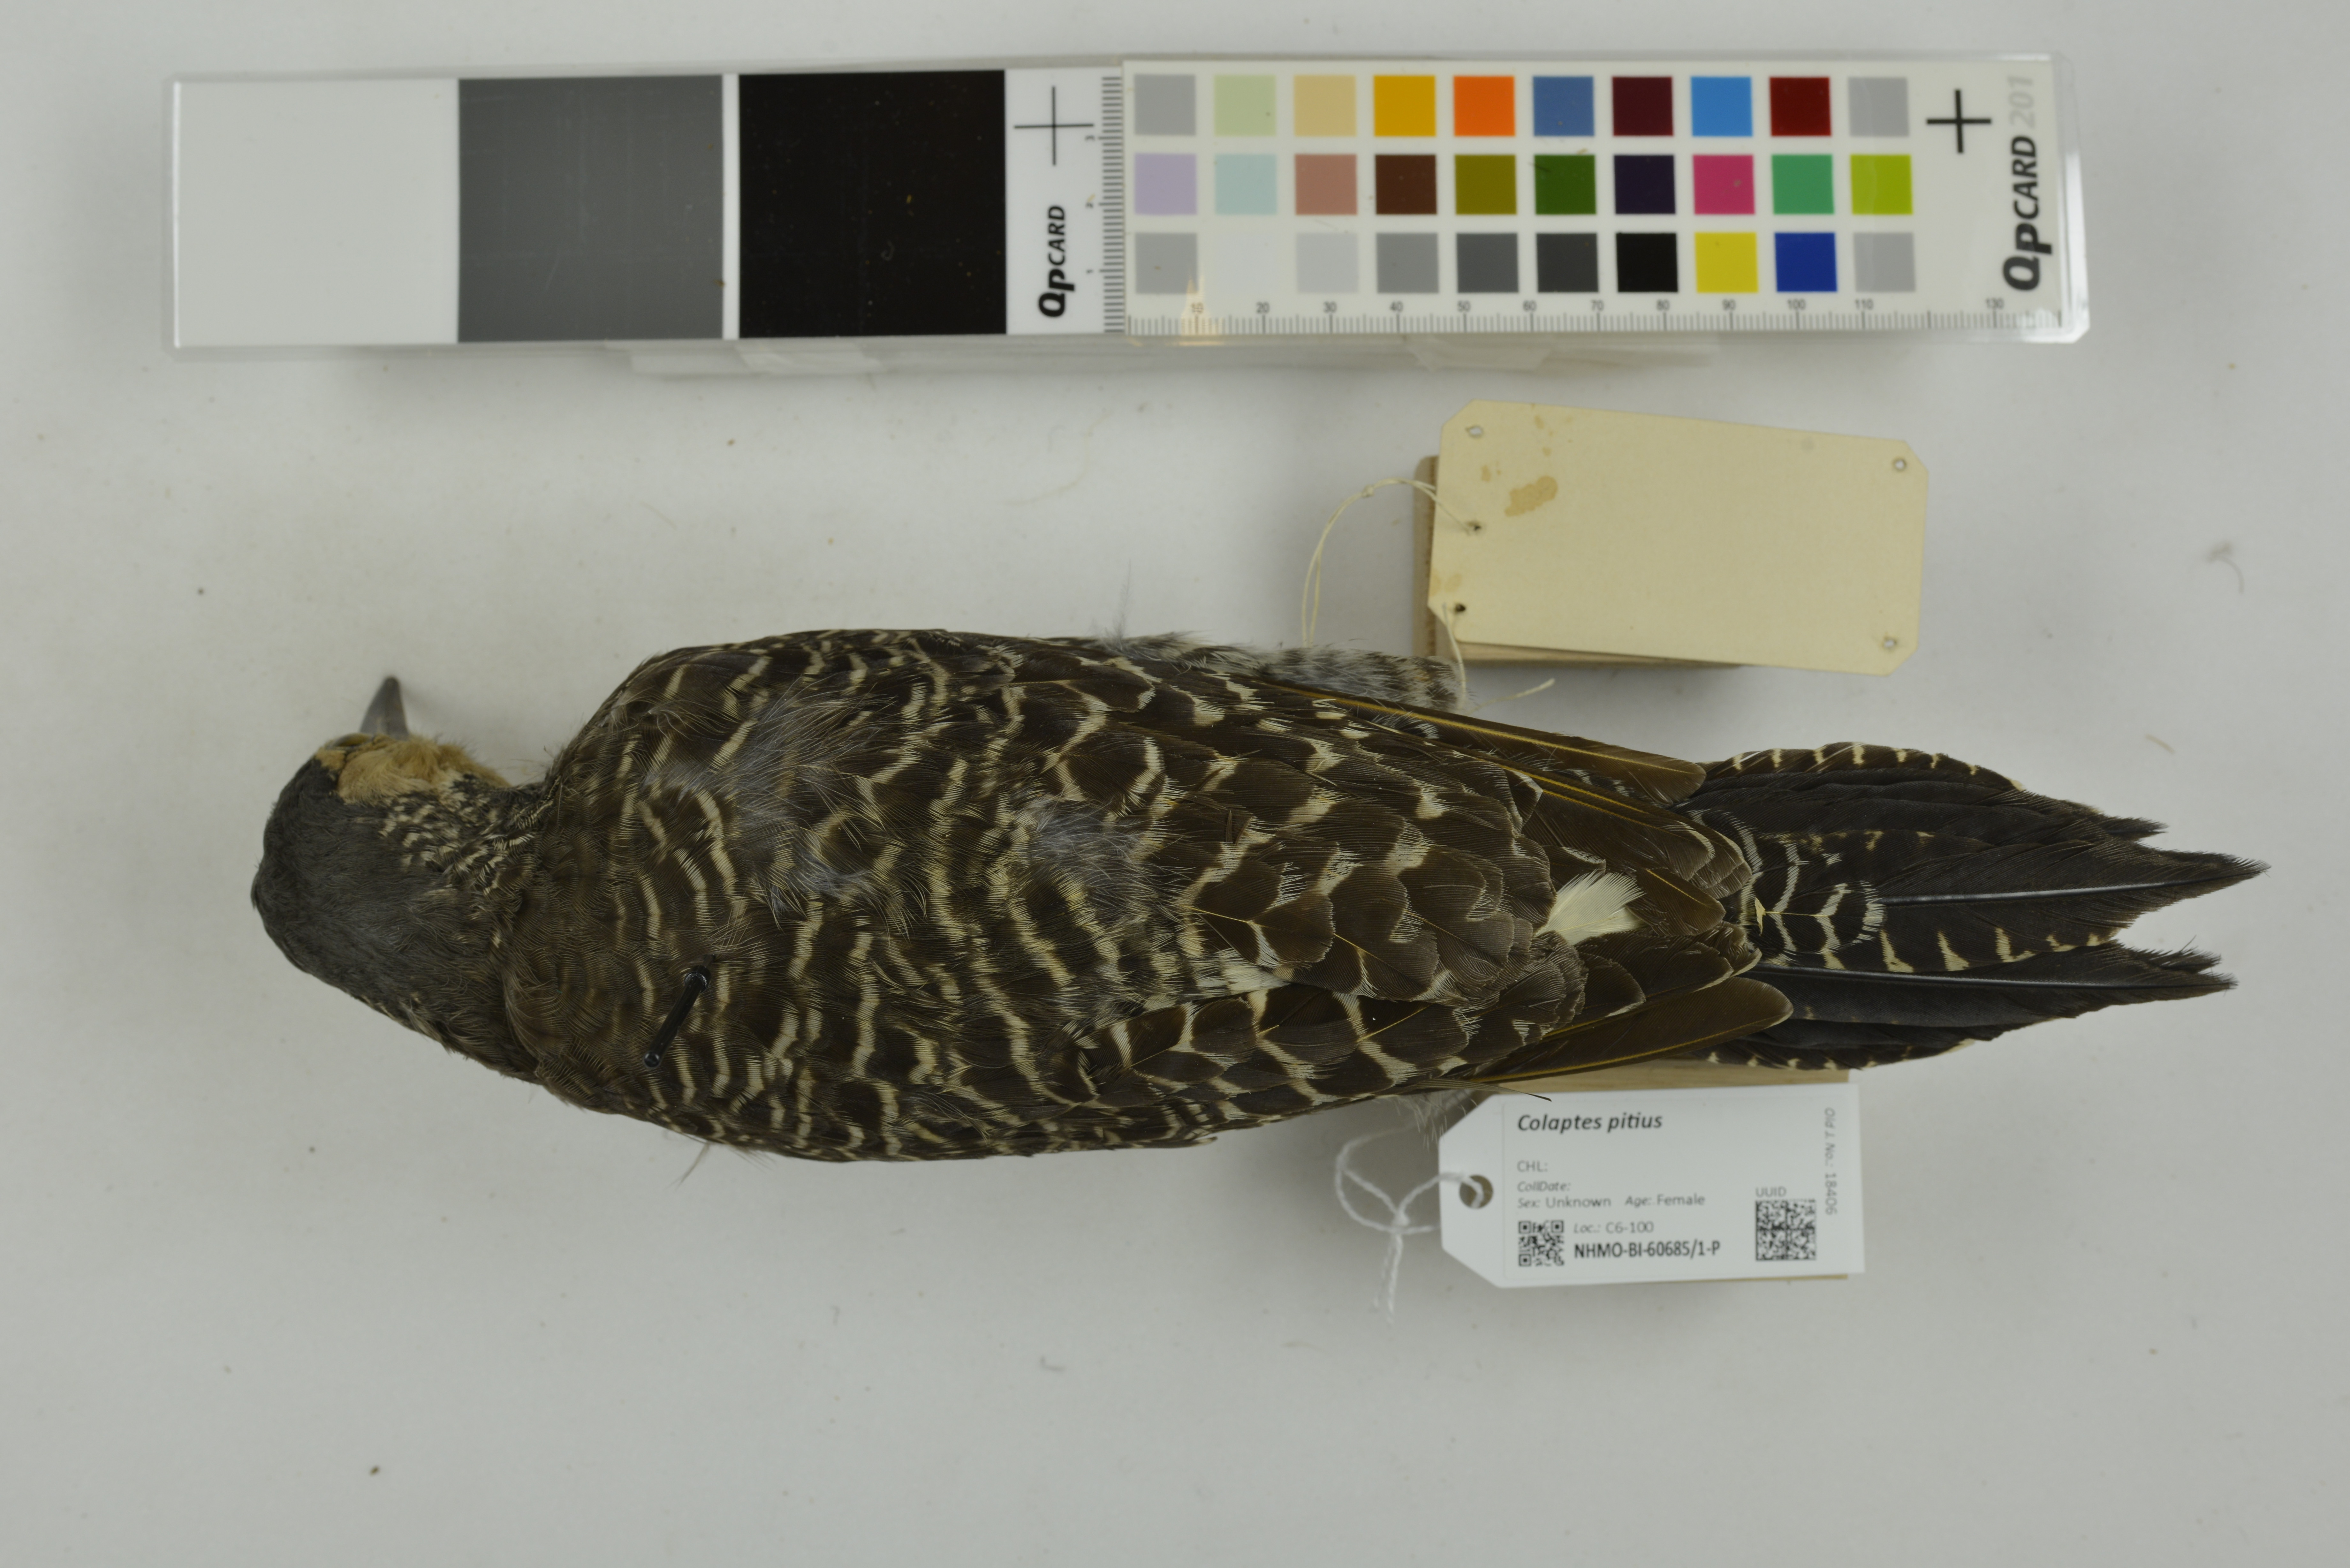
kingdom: Animalia
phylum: Chordata
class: Aves
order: Piciformes
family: Picidae
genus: Colaptes
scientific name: Colaptes pitius
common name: Chilean flicker
